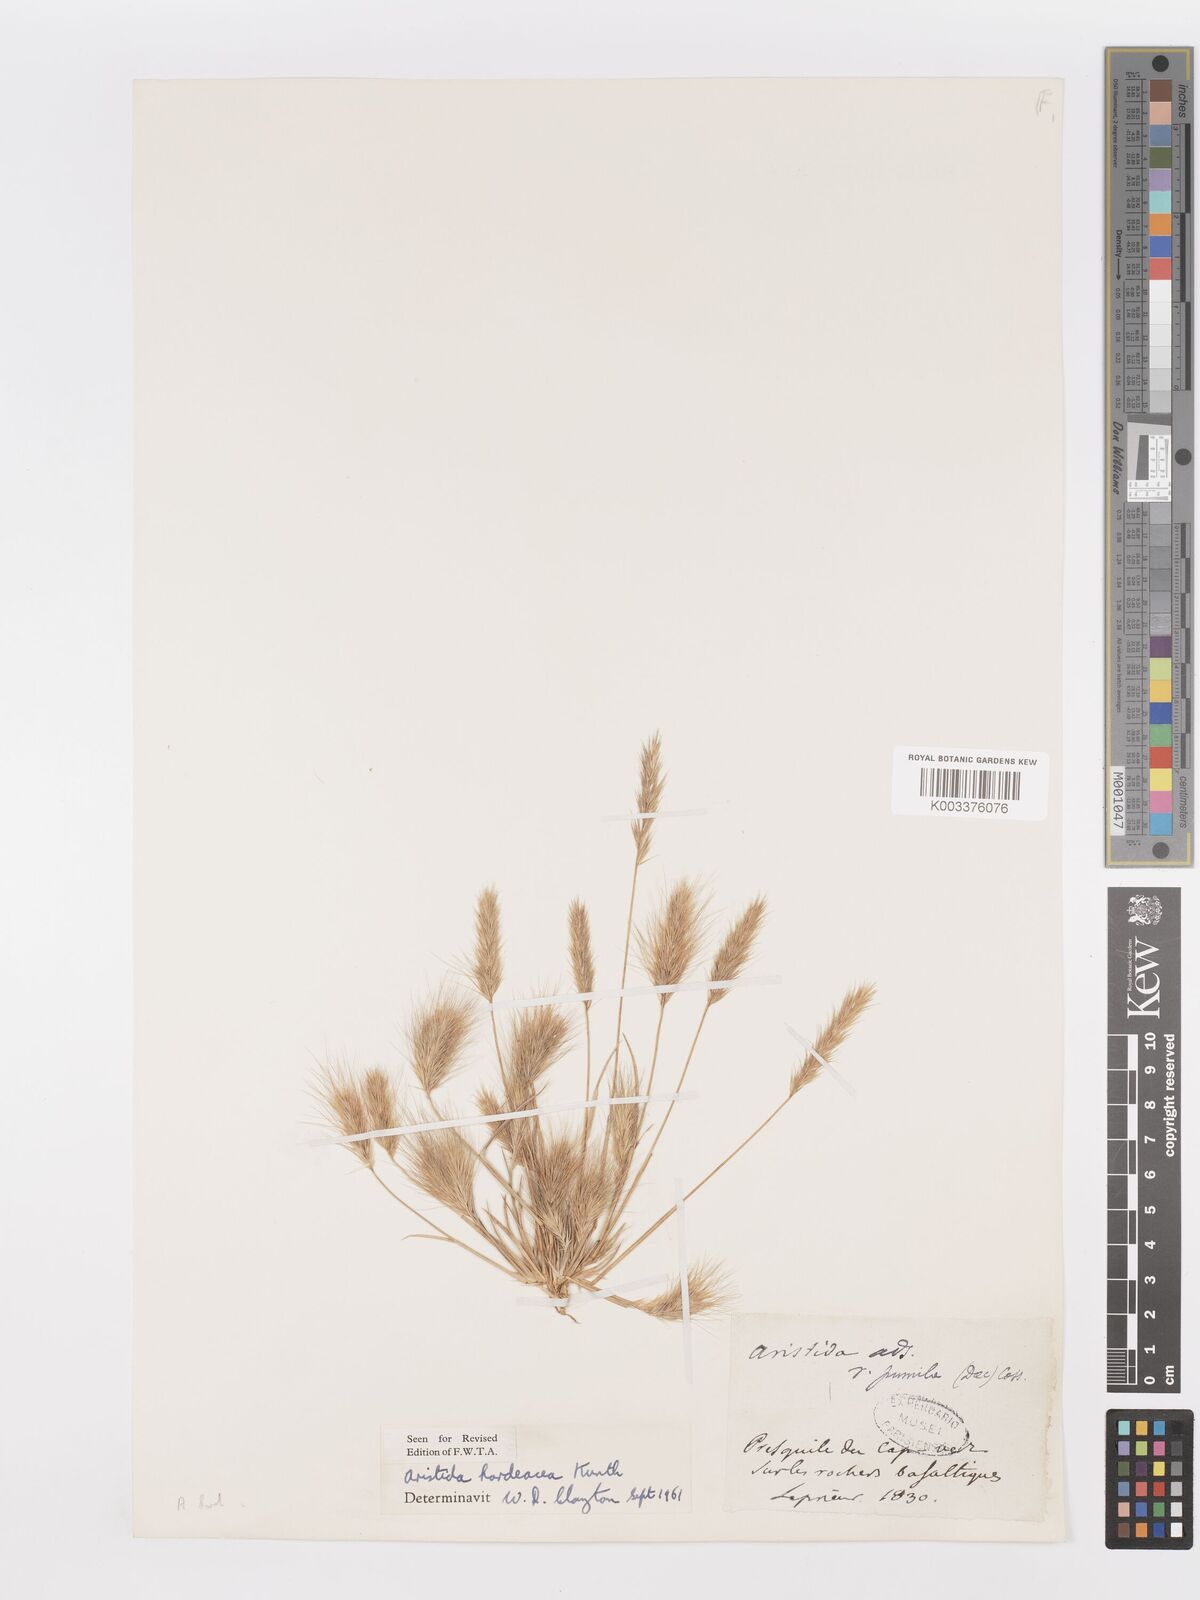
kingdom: Plantae
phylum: Tracheophyta
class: Liliopsida
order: Poales
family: Poaceae
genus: Aristida
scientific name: Aristida hordeacea
